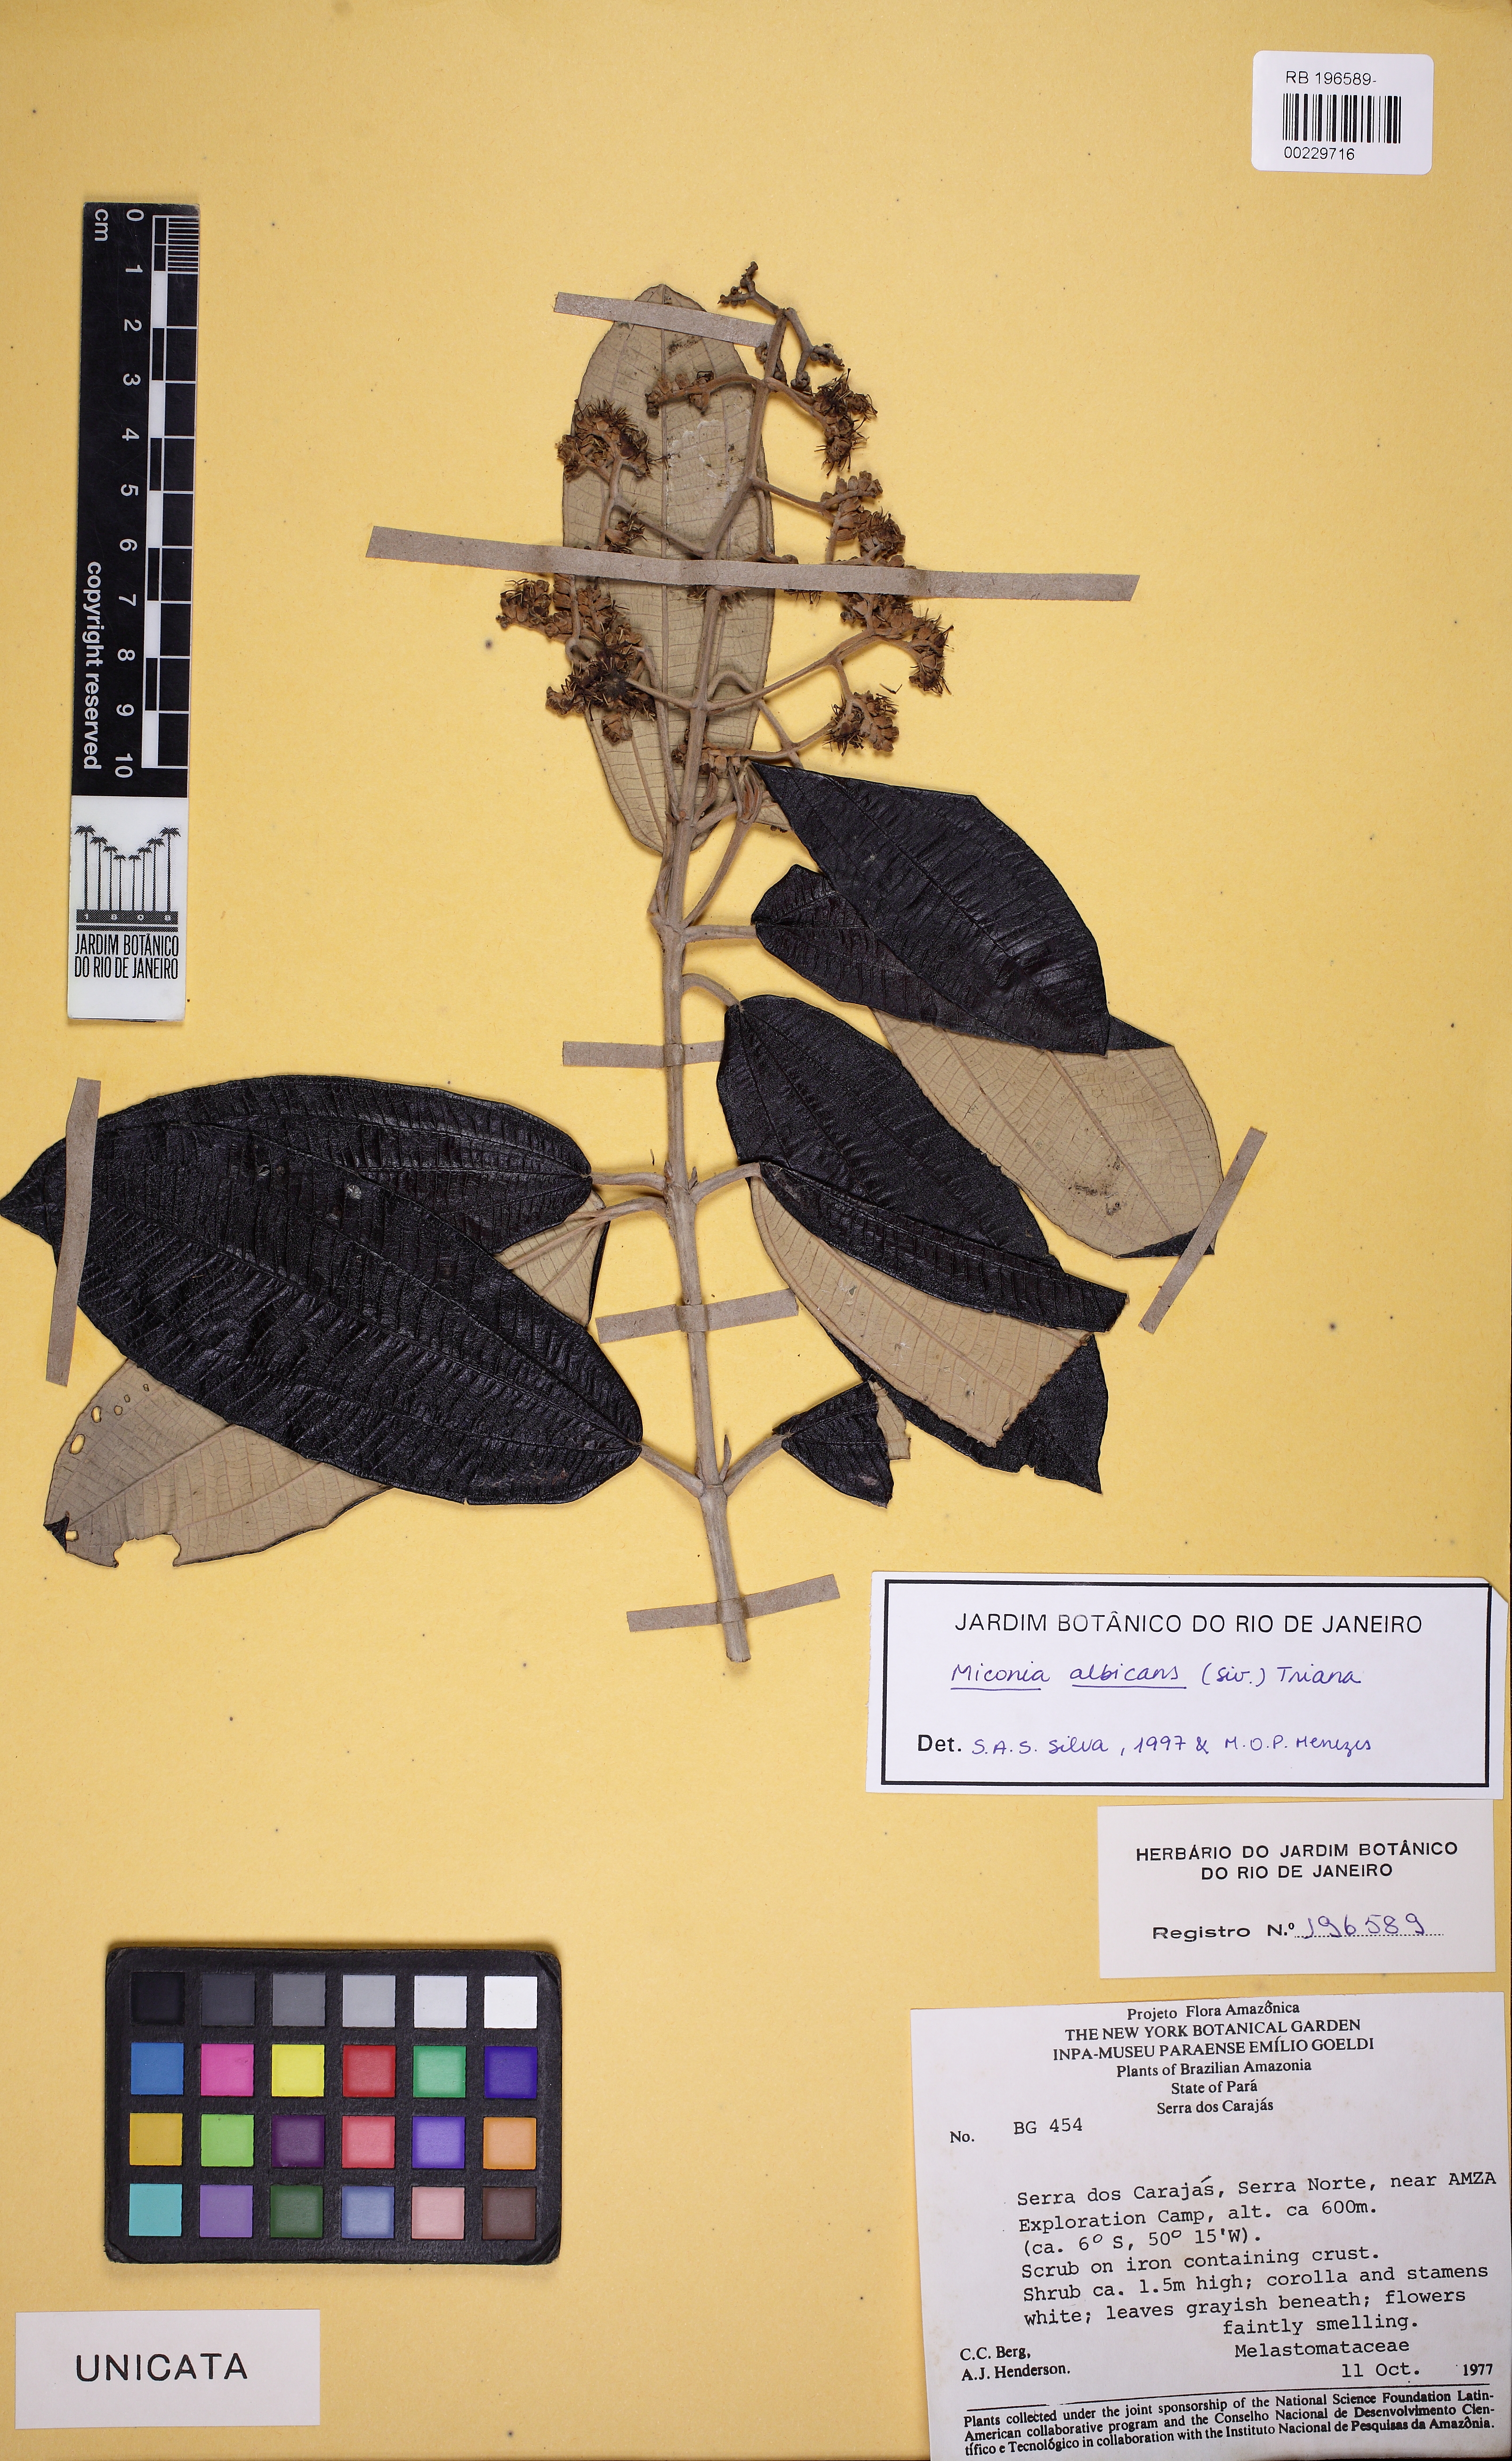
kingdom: Plantae
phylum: Tracheophyta
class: Magnoliopsida
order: Myrtales
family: Melastomataceae
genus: Miconia
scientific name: Miconia albicans
